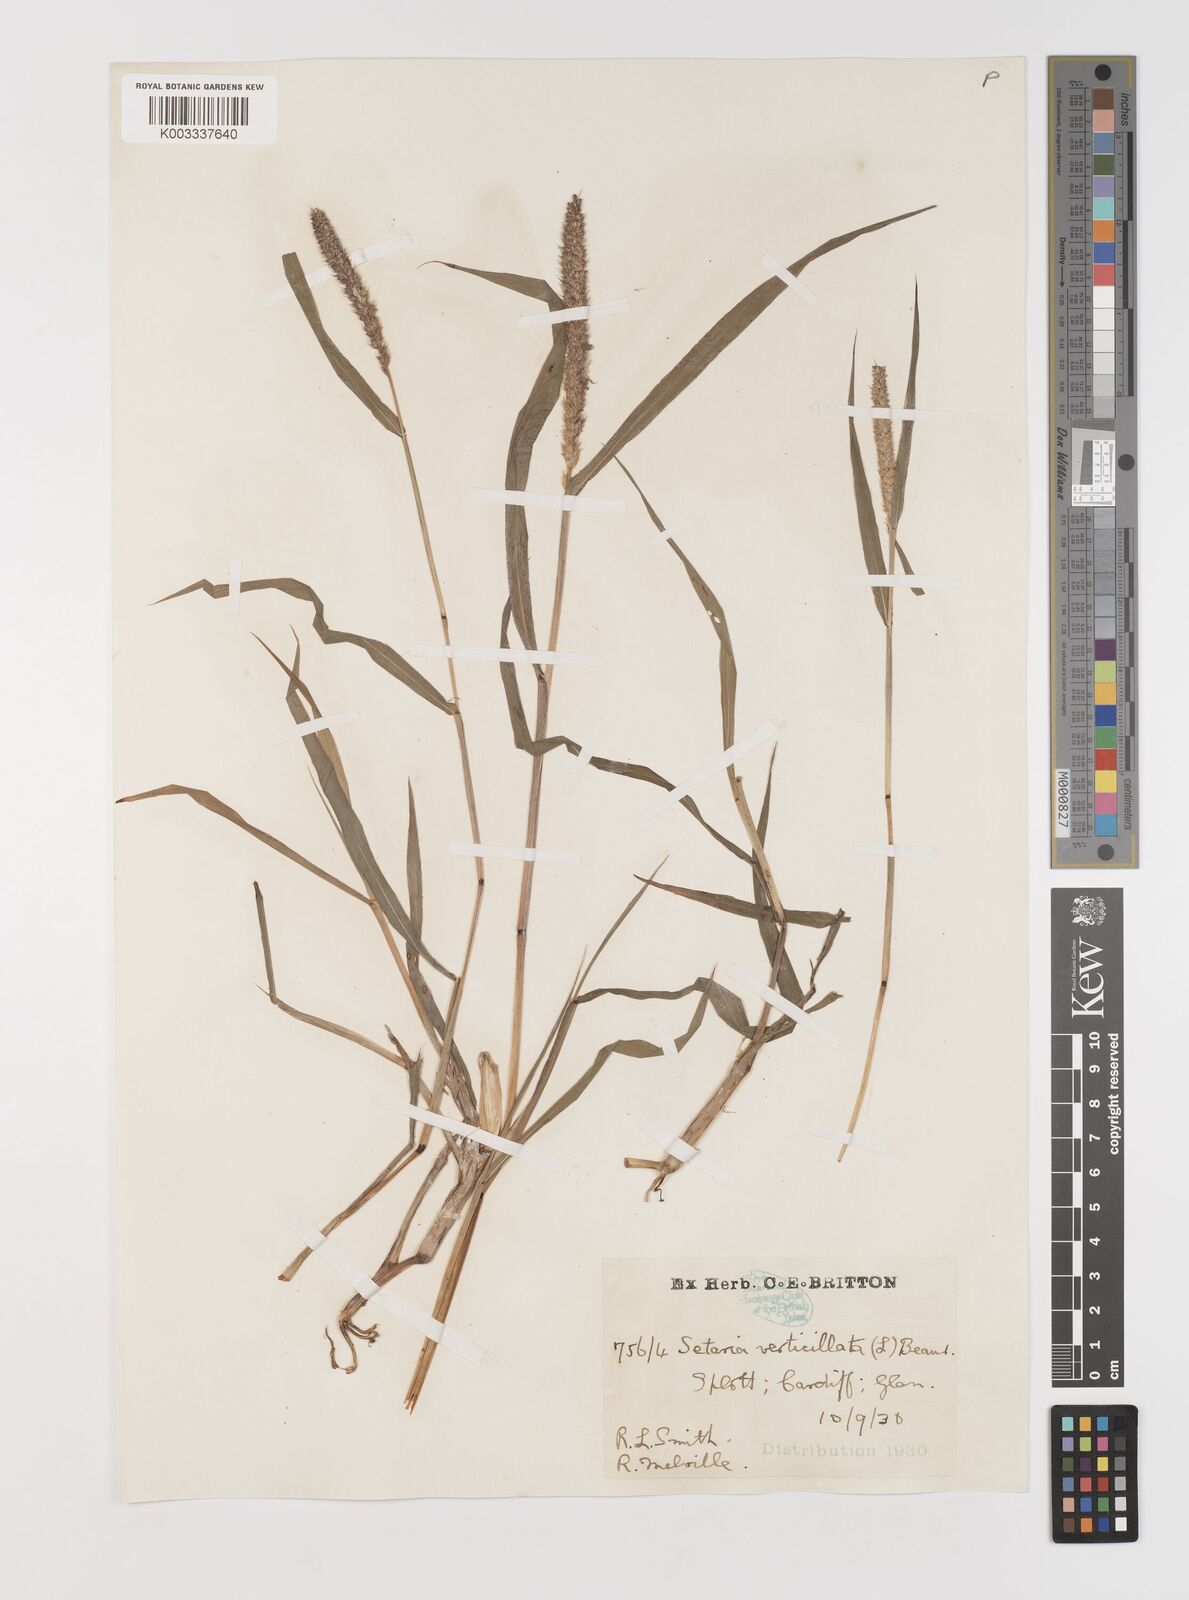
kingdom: Plantae
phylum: Tracheophyta
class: Liliopsida
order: Poales
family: Poaceae
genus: Setaria
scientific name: Setaria verticillata
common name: Hooked bristlegrass
